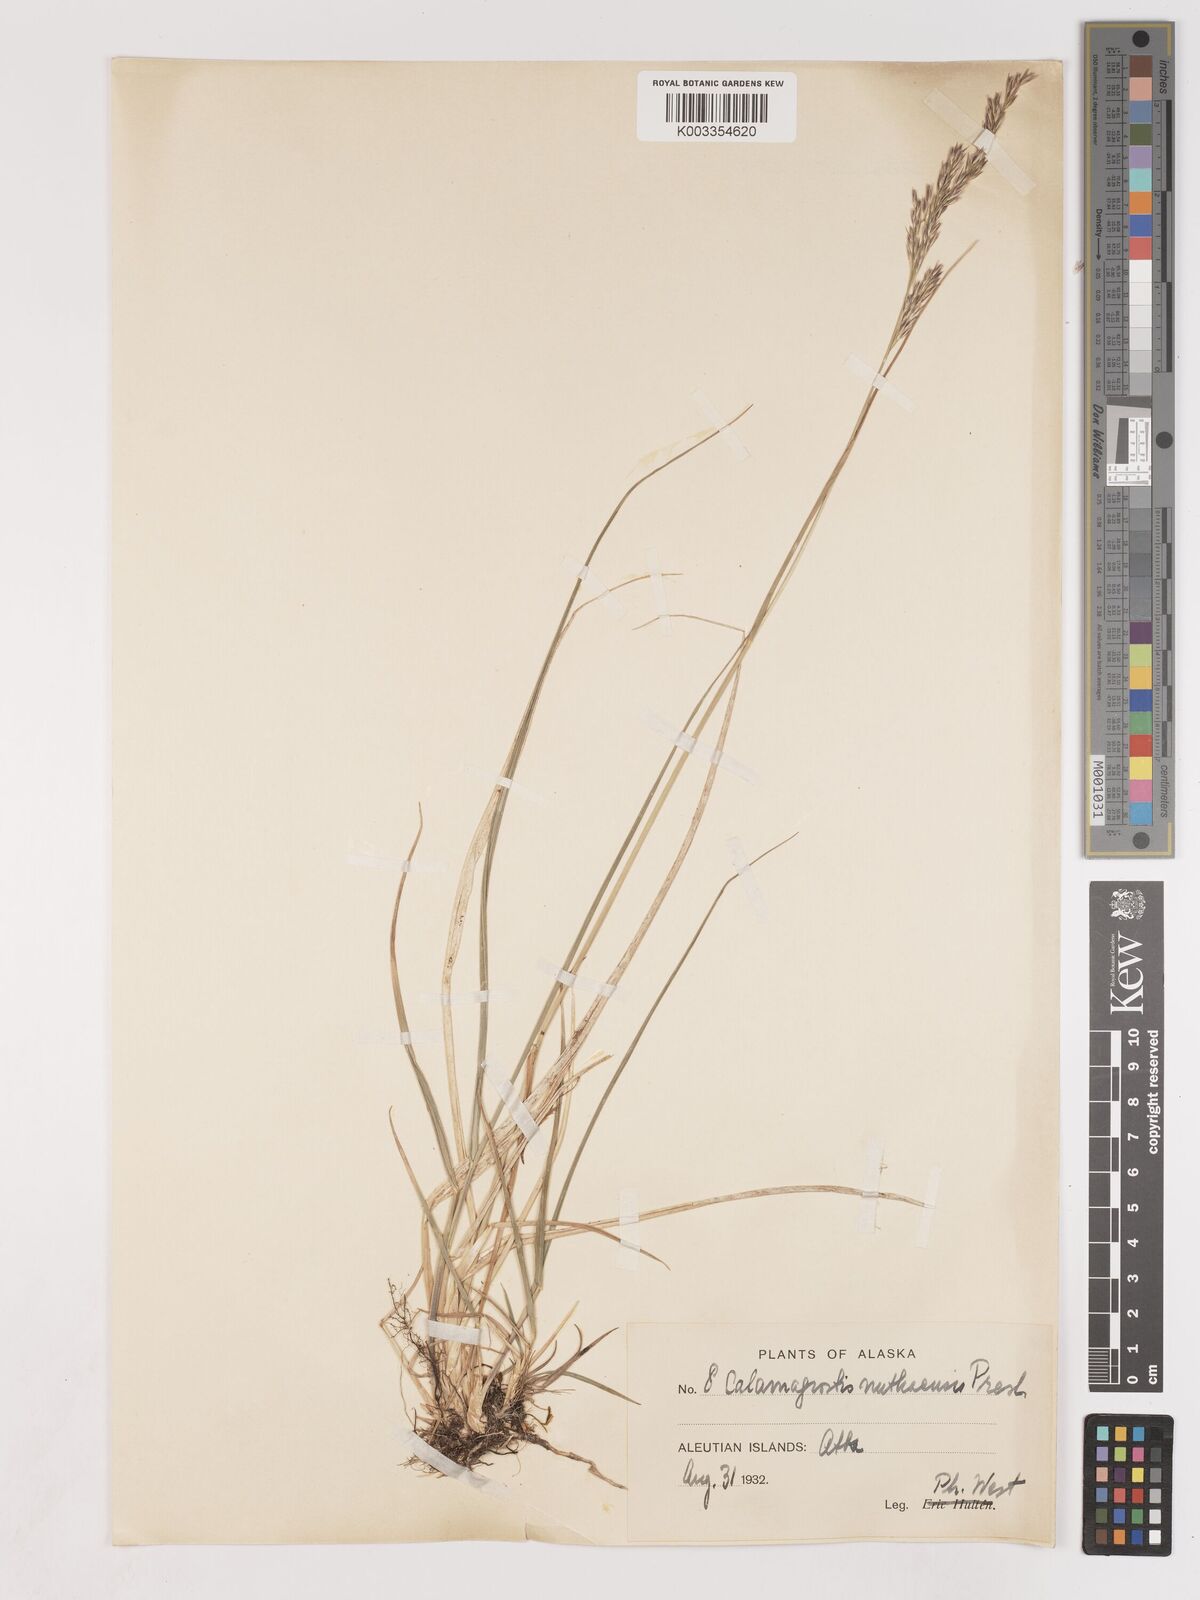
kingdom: Plantae
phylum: Tracheophyta
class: Liliopsida
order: Poales
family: Poaceae
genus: Calamagrostis
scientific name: Calamagrostis nutkaensis
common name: Pacific reed grass
